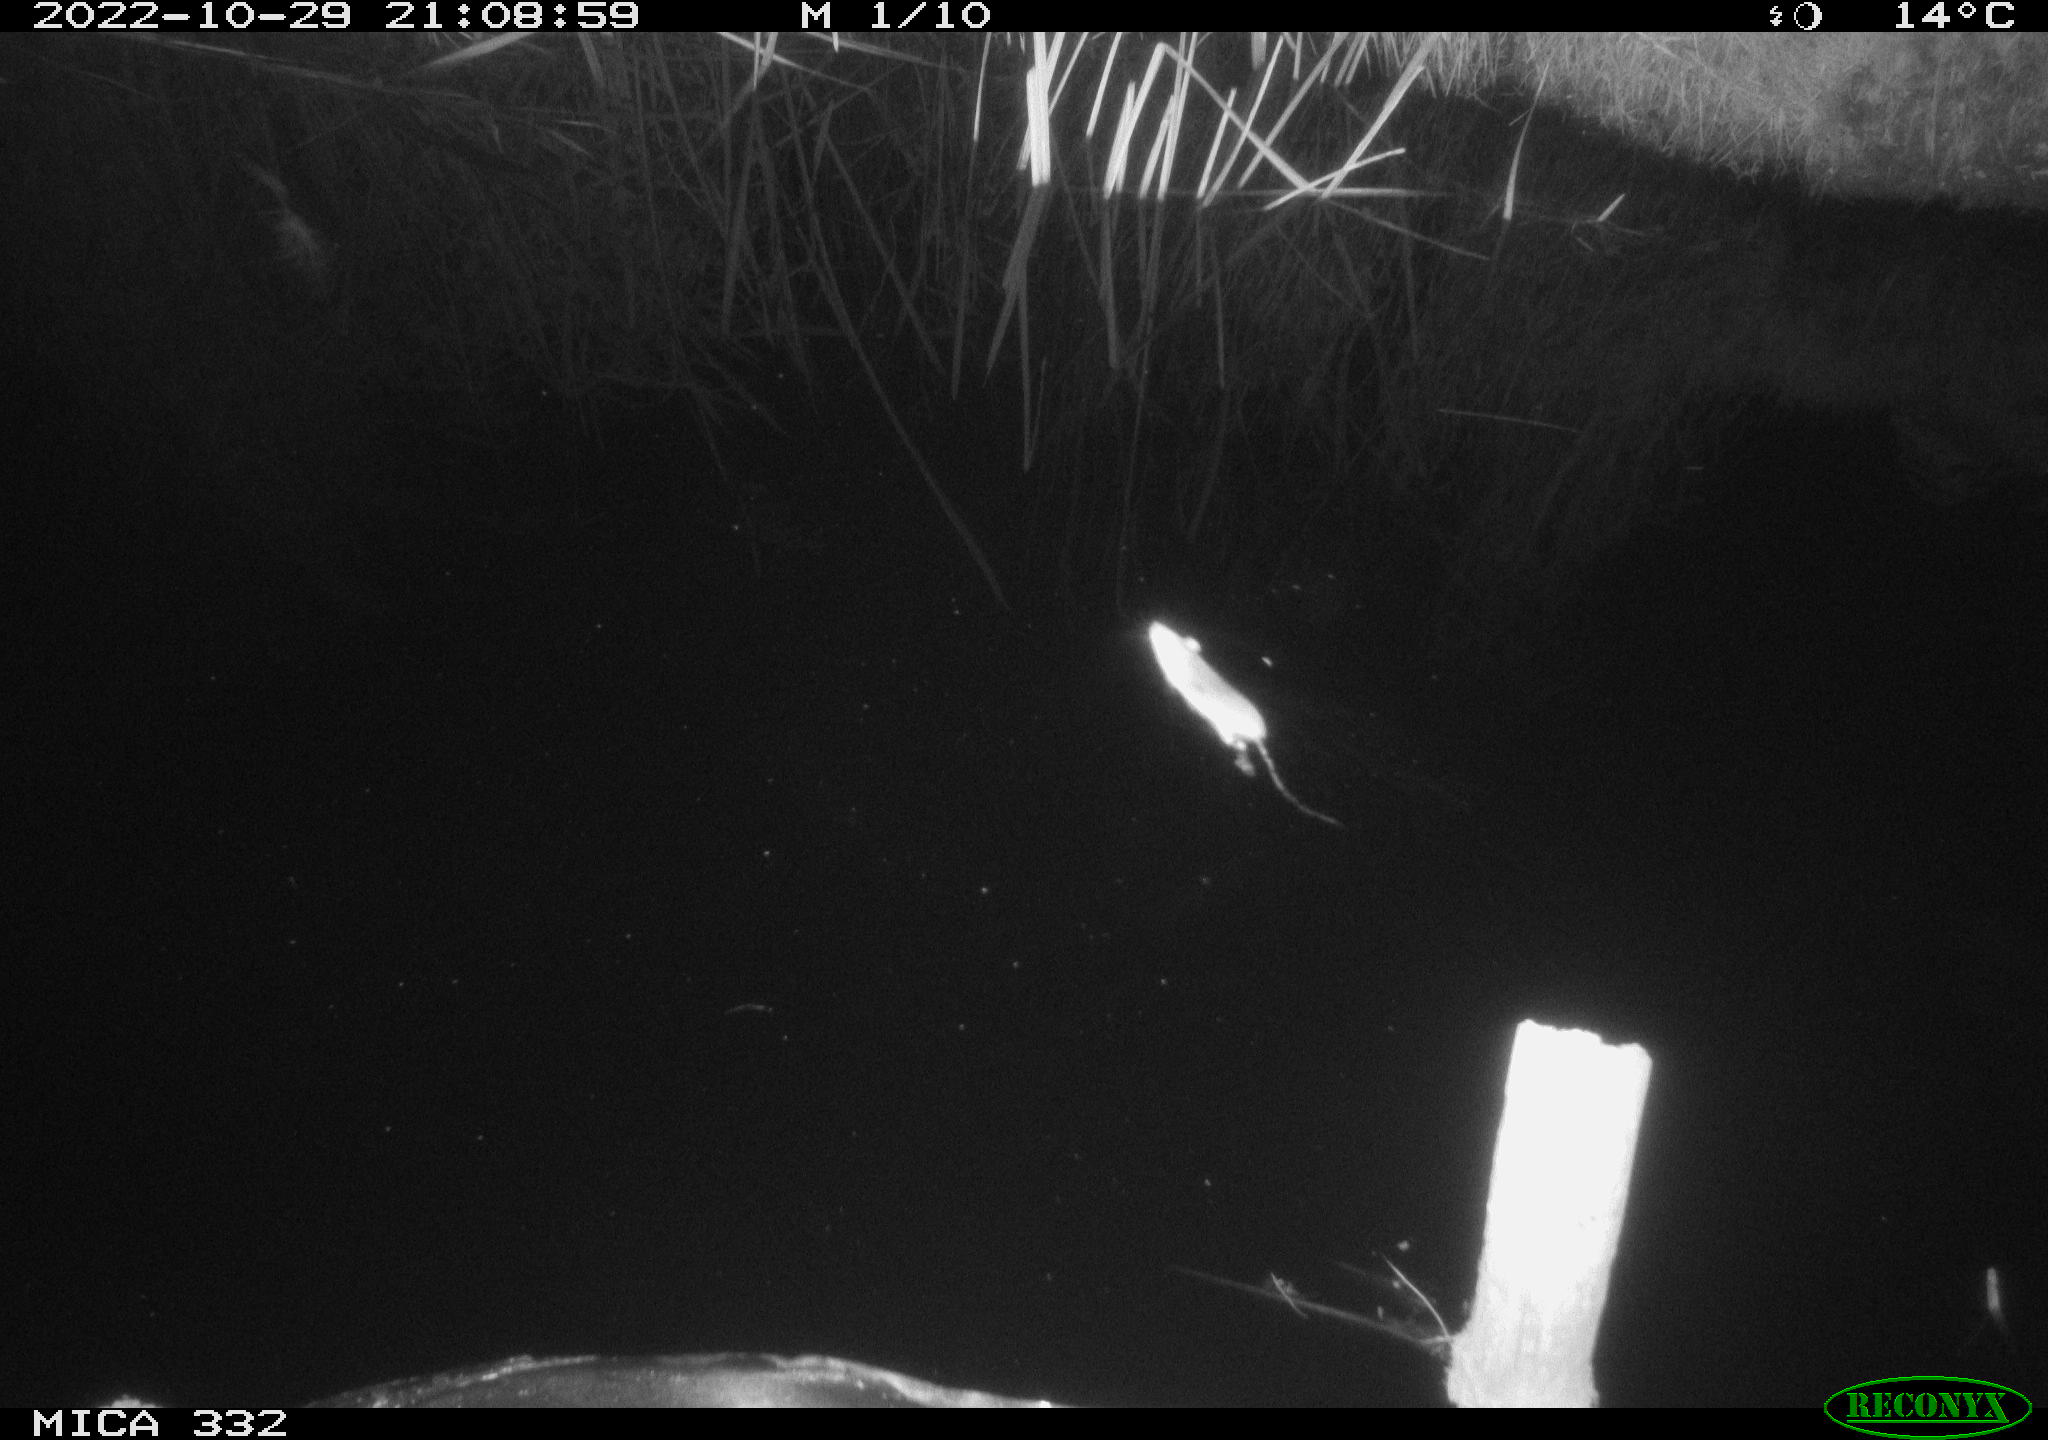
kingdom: Animalia
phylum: Chordata
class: Mammalia
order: Rodentia
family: Muridae
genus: Rattus
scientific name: Rattus norvegicus
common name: Brown rat
